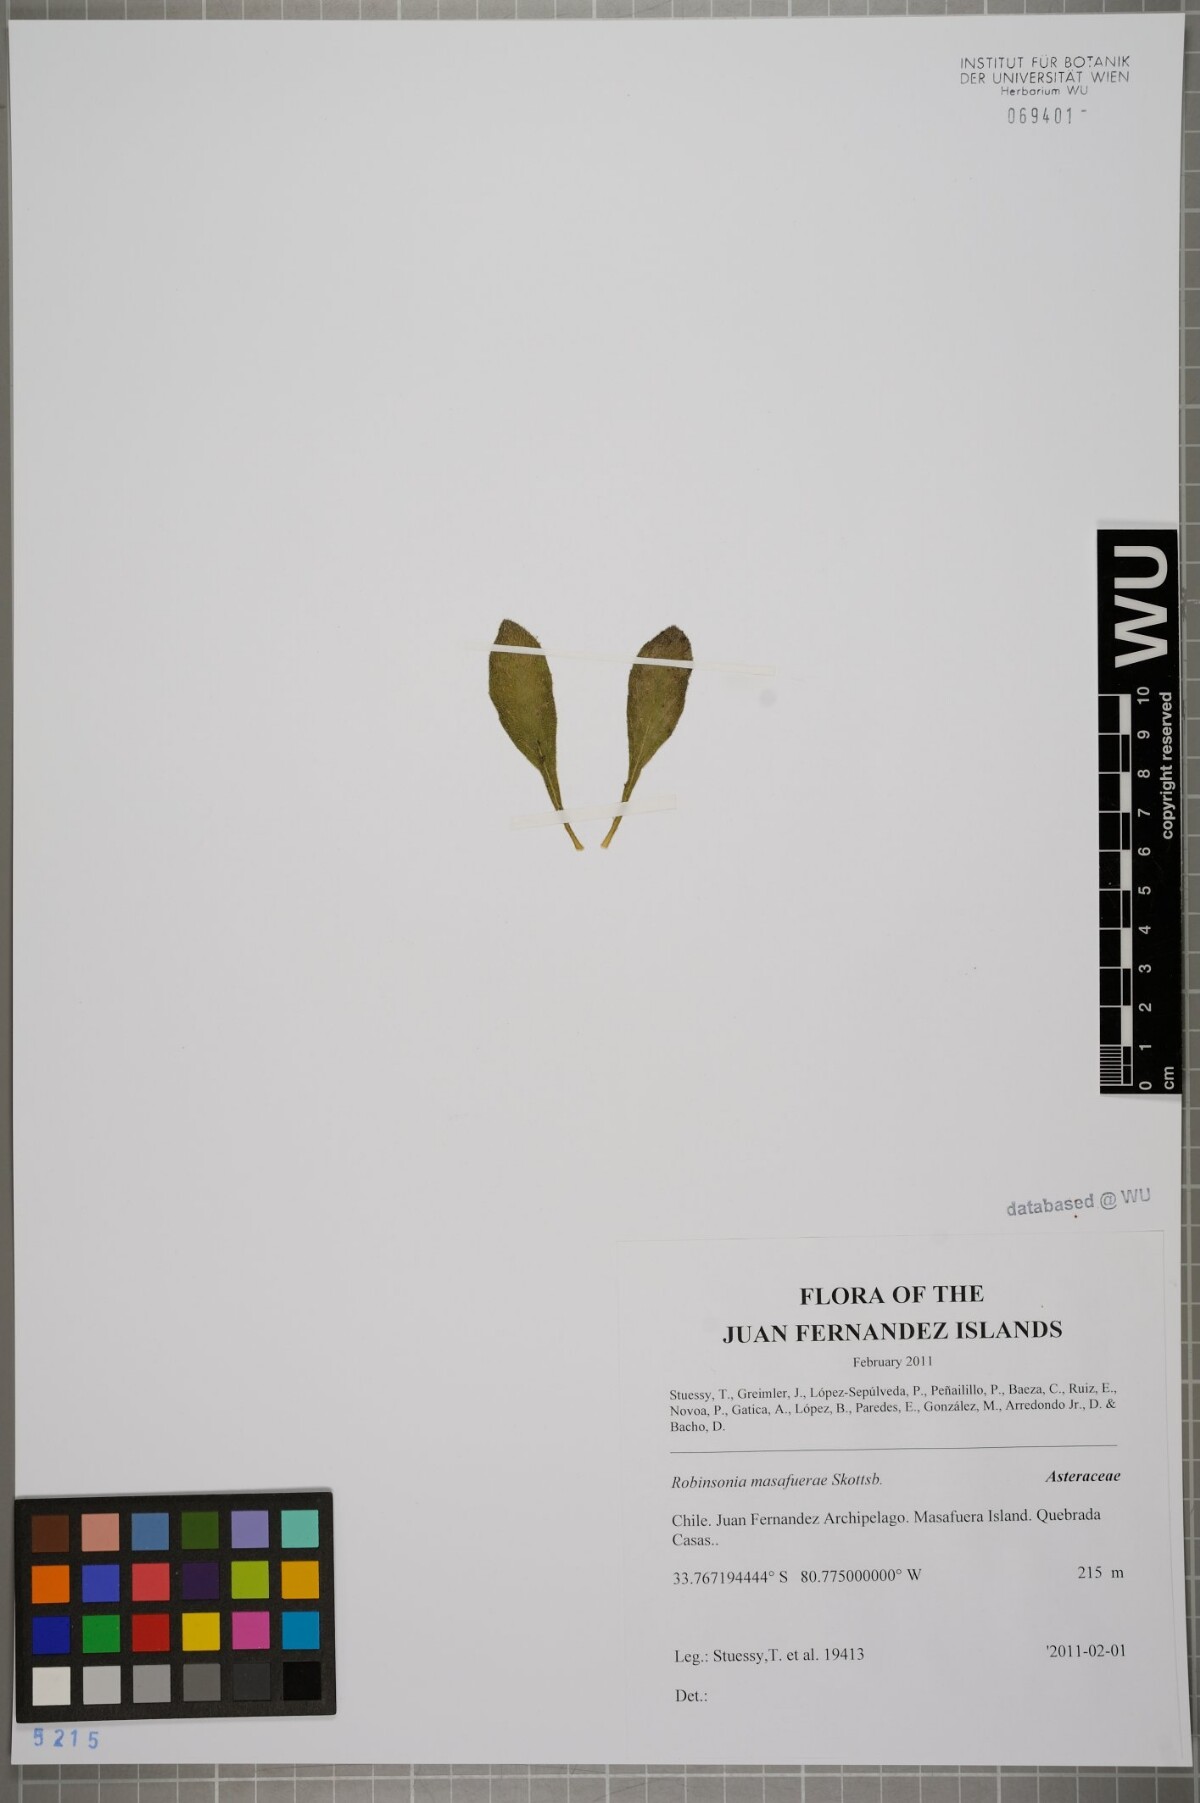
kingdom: Plantae
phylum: Tracheophyta
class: Magnoliopsida
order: Asterales
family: Asteraceae
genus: Robinsonia
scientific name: Robinsonia masafuerae
